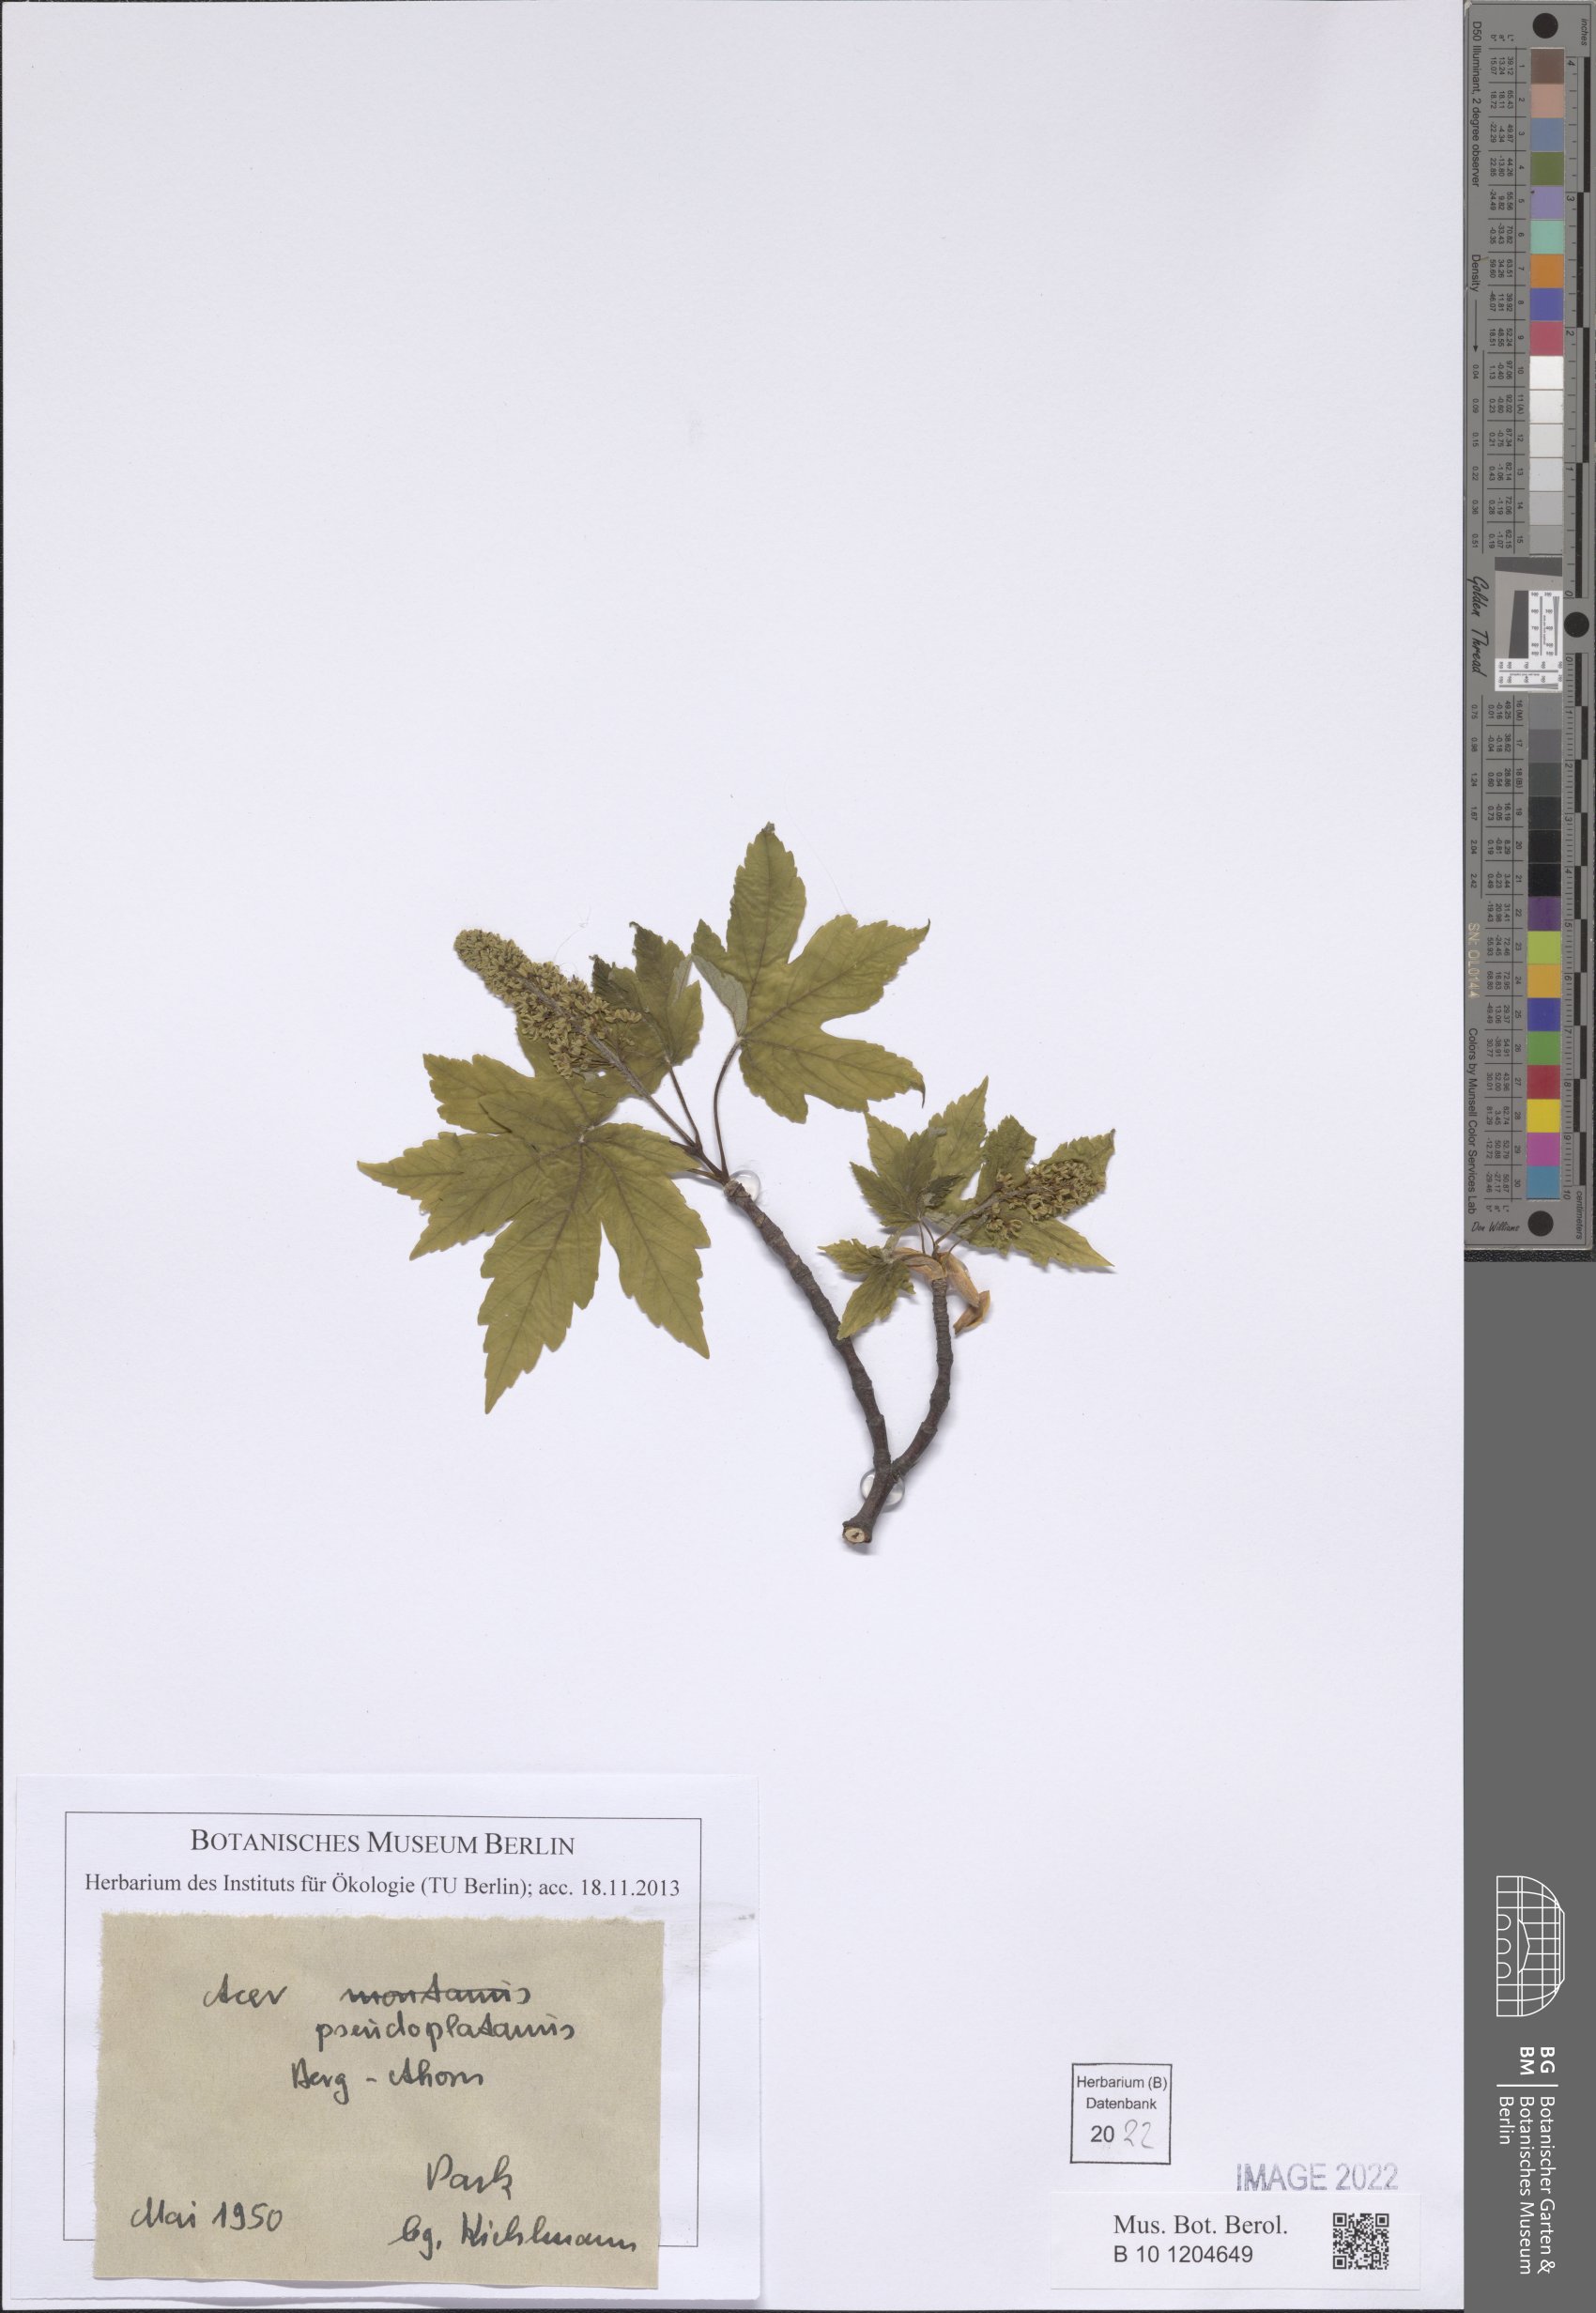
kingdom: Plantae
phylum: Tracheophyta
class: Magnoliopsida
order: Sapindales
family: Sapindaceae
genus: Acer
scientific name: Acer pseudoplatanus
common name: Sycamore
